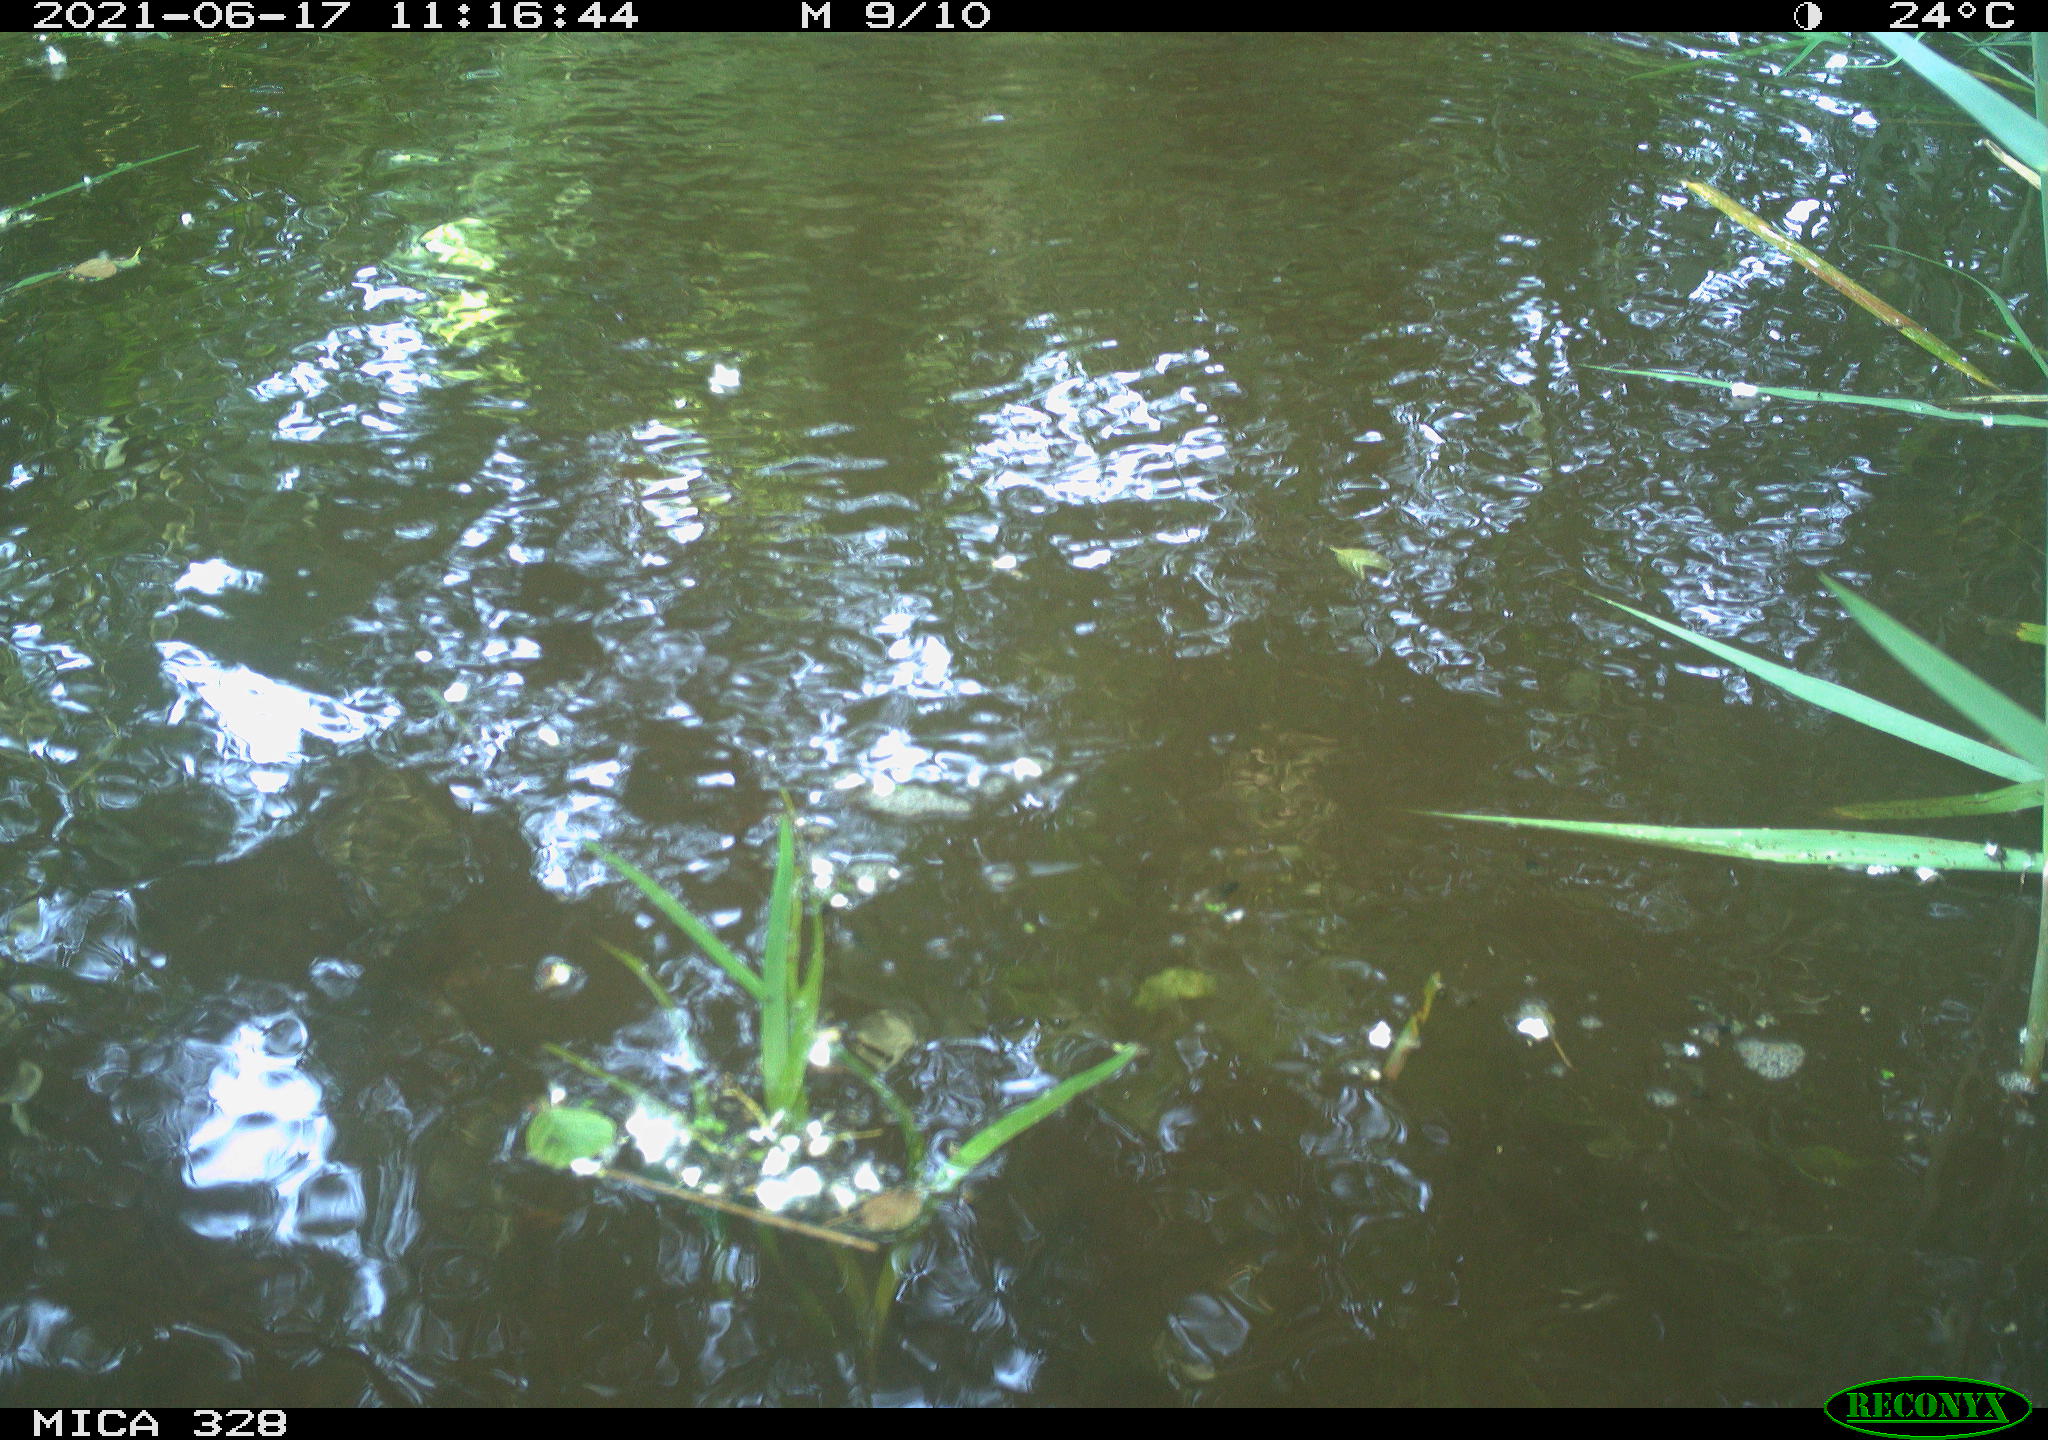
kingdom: Animalia
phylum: Chordata
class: Mammalia
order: Rodentia
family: Cricetidae
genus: Ondatra
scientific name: Ondatra zibethicus
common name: Muskrat
